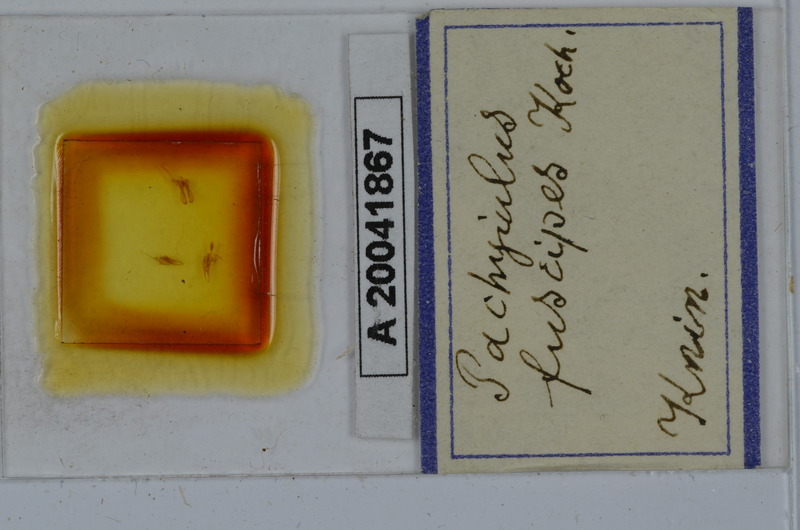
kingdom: Animalia
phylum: Arthropoda
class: Diplopoda
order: Julida
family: Julidae
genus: Acanthoiulus
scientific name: Acanthoiulus fuscipes
